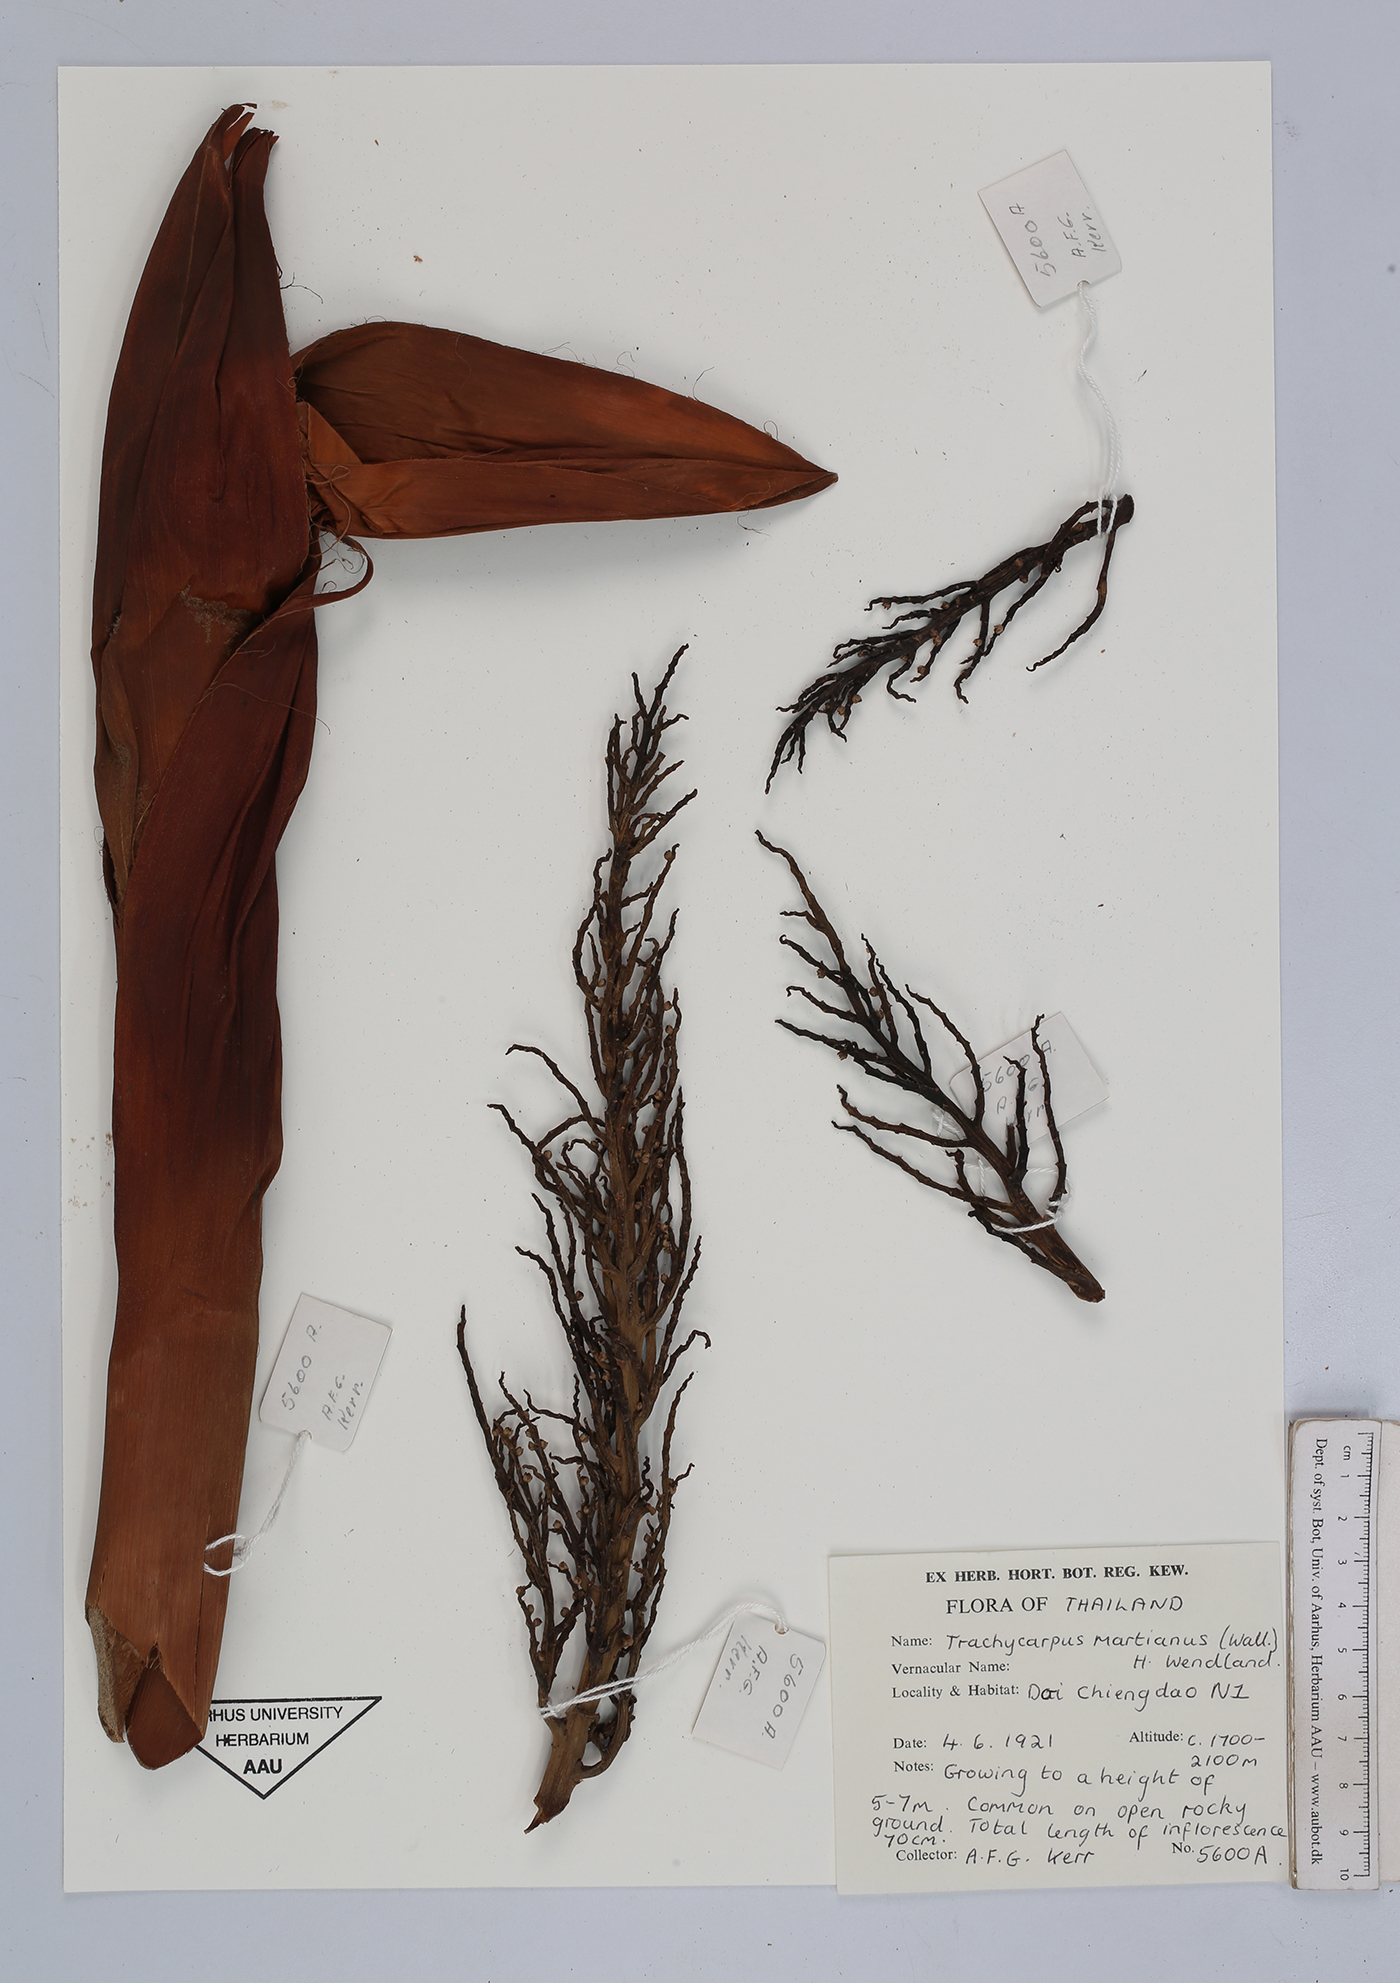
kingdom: Plantae
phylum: Tracheophyta
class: Liliopsida
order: Arecales
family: Arecaceae
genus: Trachycarpus
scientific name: Trachycarpus martianus
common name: Martius's windmill palm
